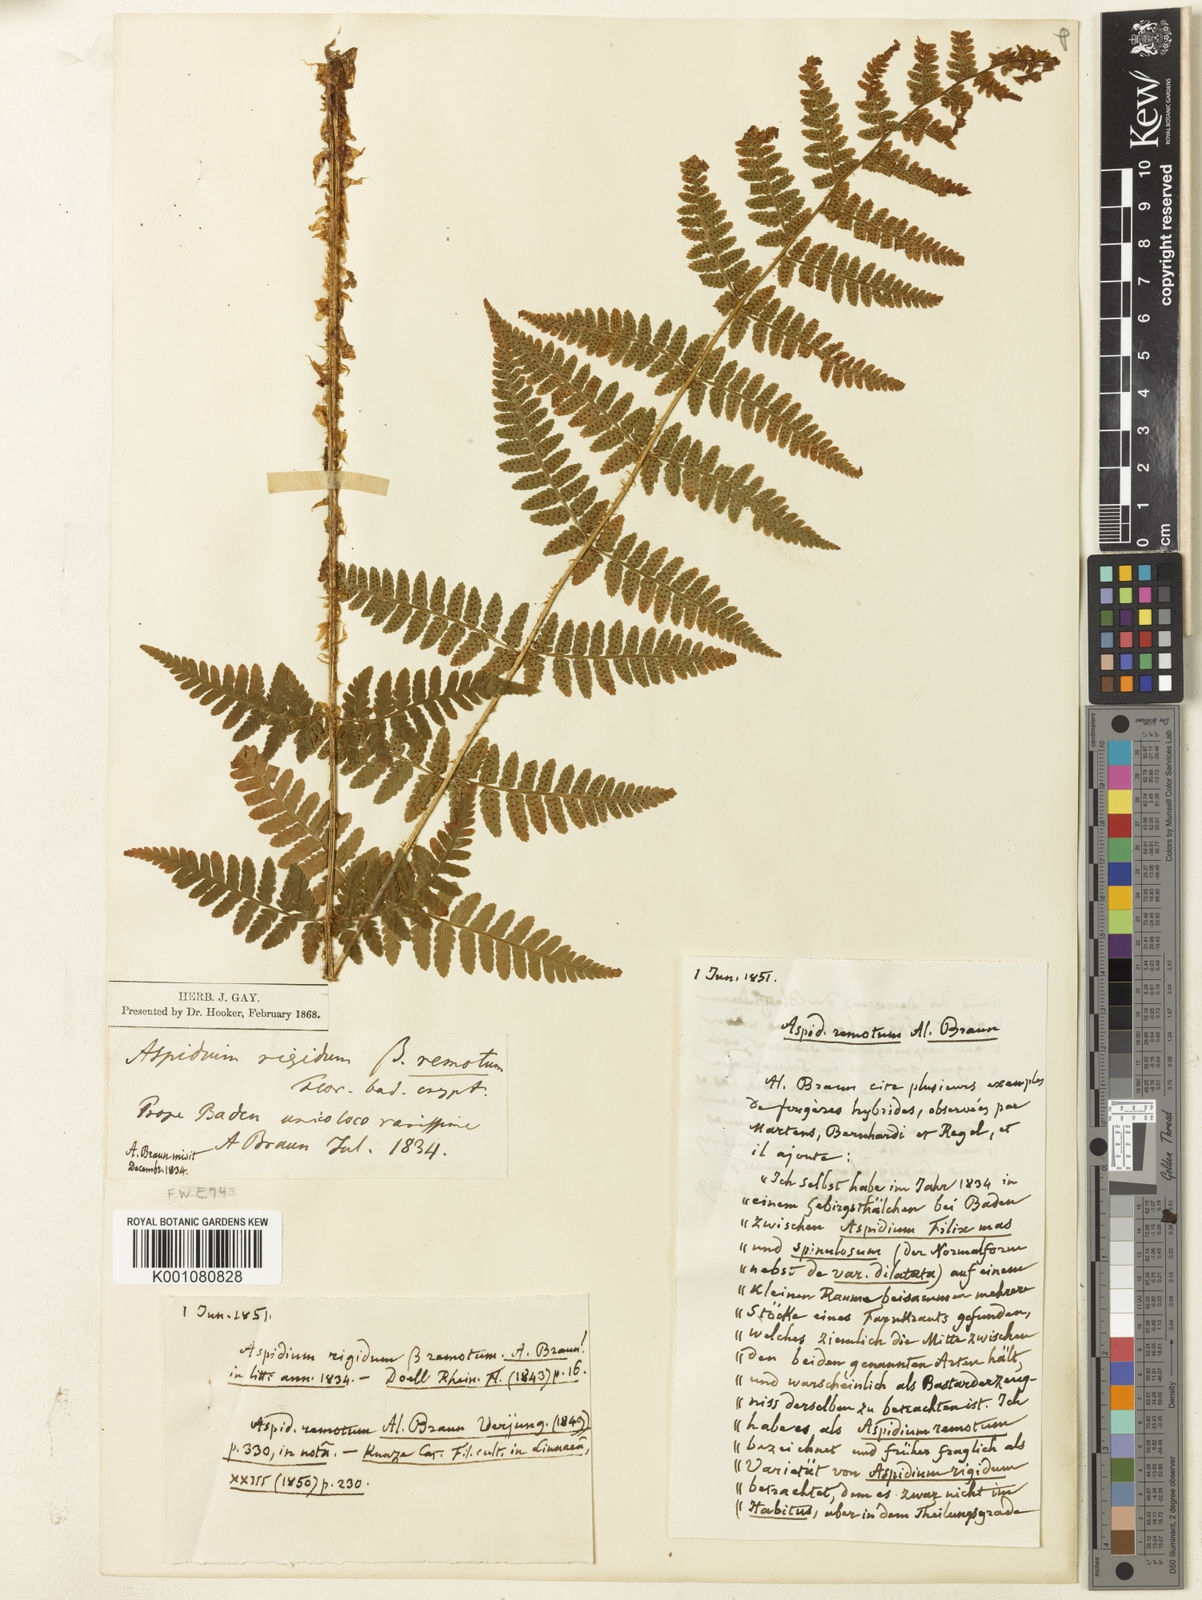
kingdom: Plantae
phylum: Tracheophyta
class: Polypodiopsida
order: Polypodiales
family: Dryopteridaceae
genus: Dryopteris
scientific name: Dryopteris affinis
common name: Scaly male fern
